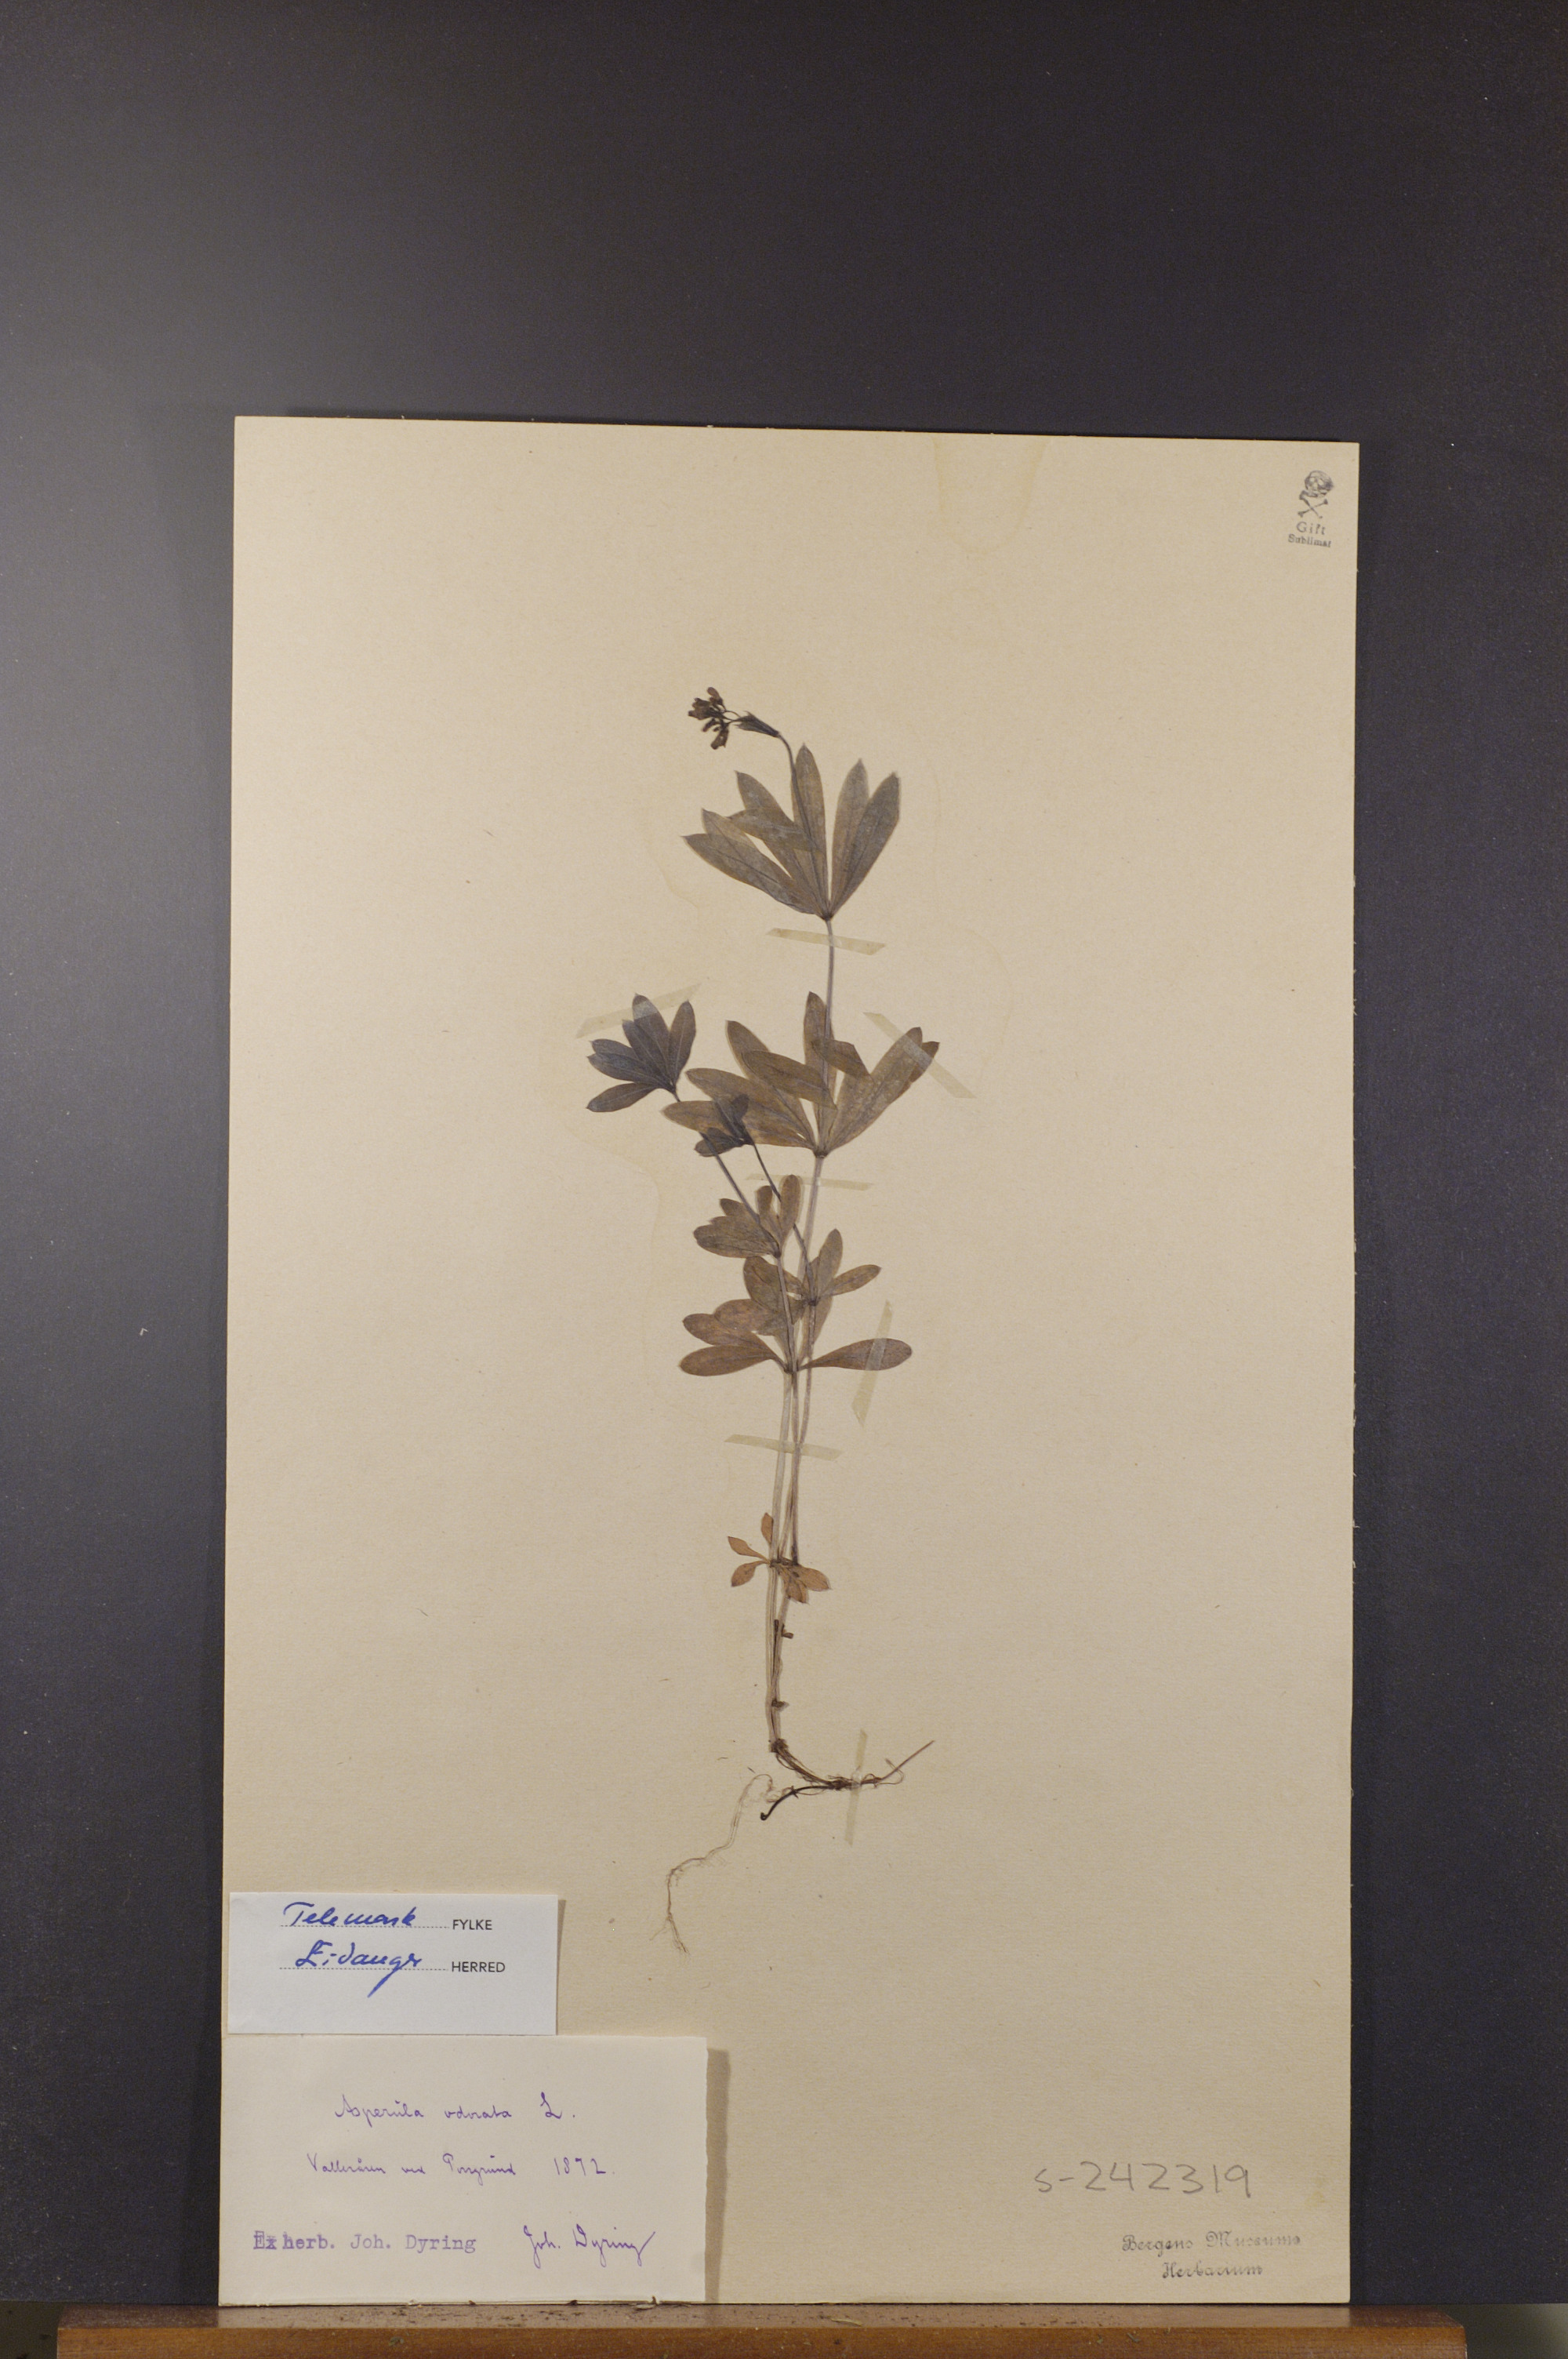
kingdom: Plantae
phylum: Tracheophyta
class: Magnoliopsida
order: Gentianales
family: Rubiaceae
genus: Galium
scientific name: Galium odoratum
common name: Sweet woodruff
